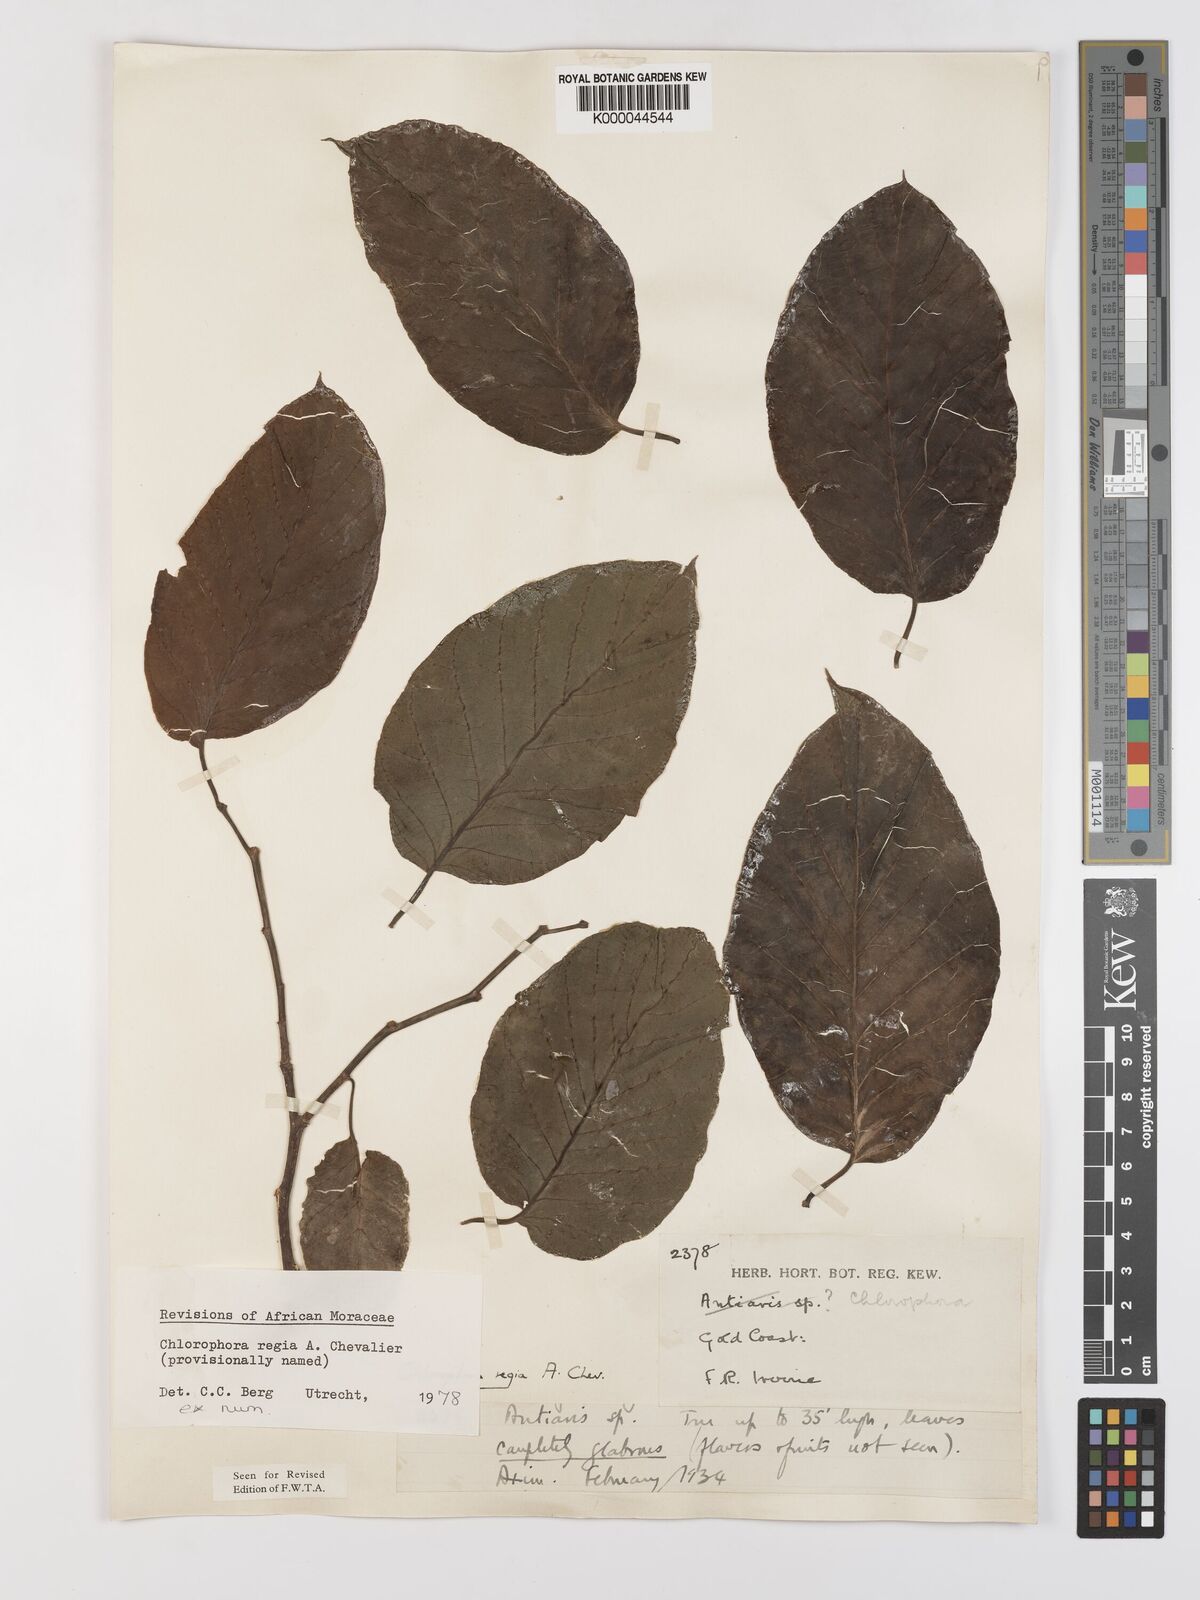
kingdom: Plantae
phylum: Tracheophyta
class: Magnoliopsida
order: Rosales
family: Moraceae
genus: Milicia
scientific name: Milicia regia
